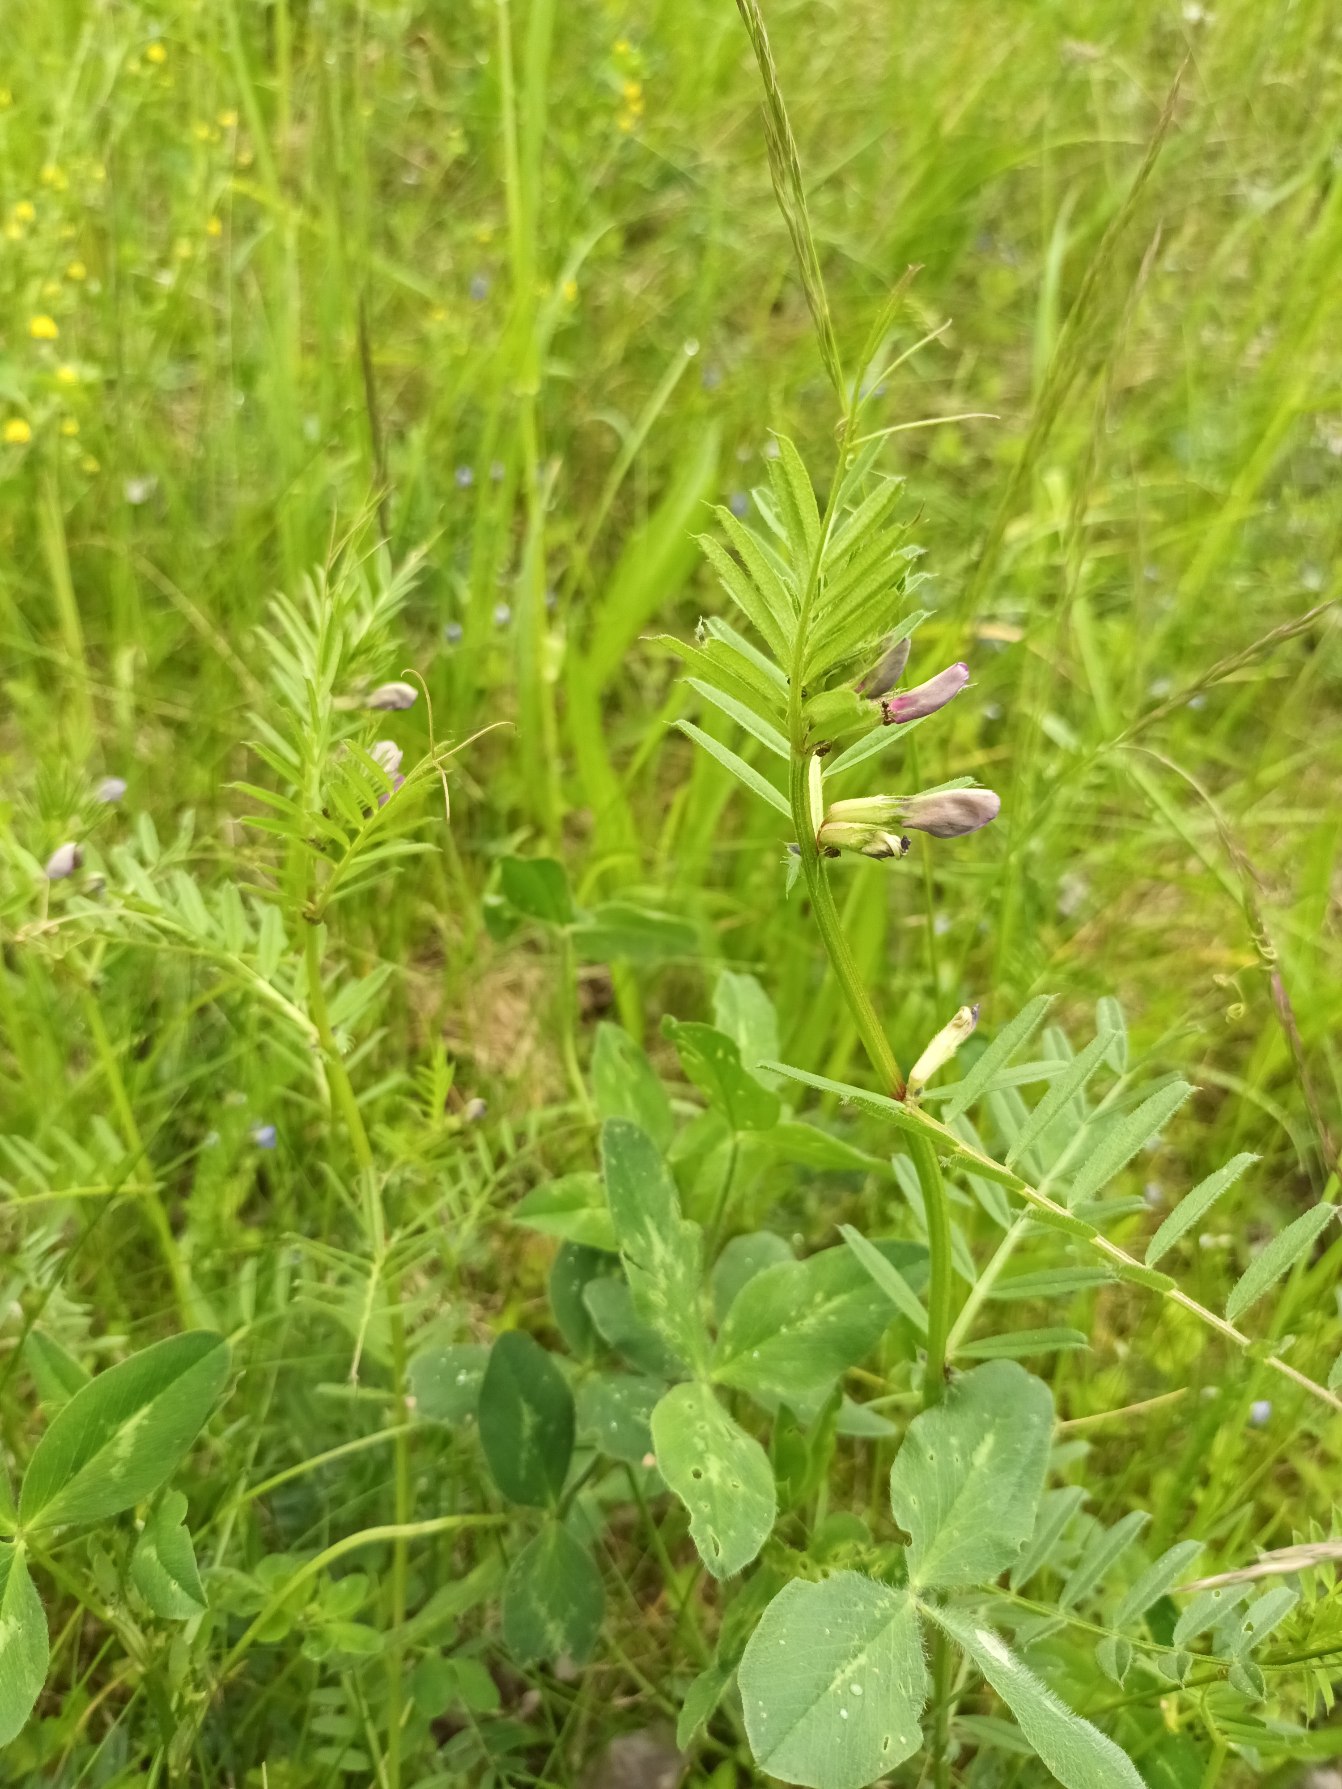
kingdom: Plantae
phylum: Tracheophyta
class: Magnoliopsida
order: Fabales
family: Fabaceae
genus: Vicia
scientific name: Vicia sativa
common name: Ager-vikke
